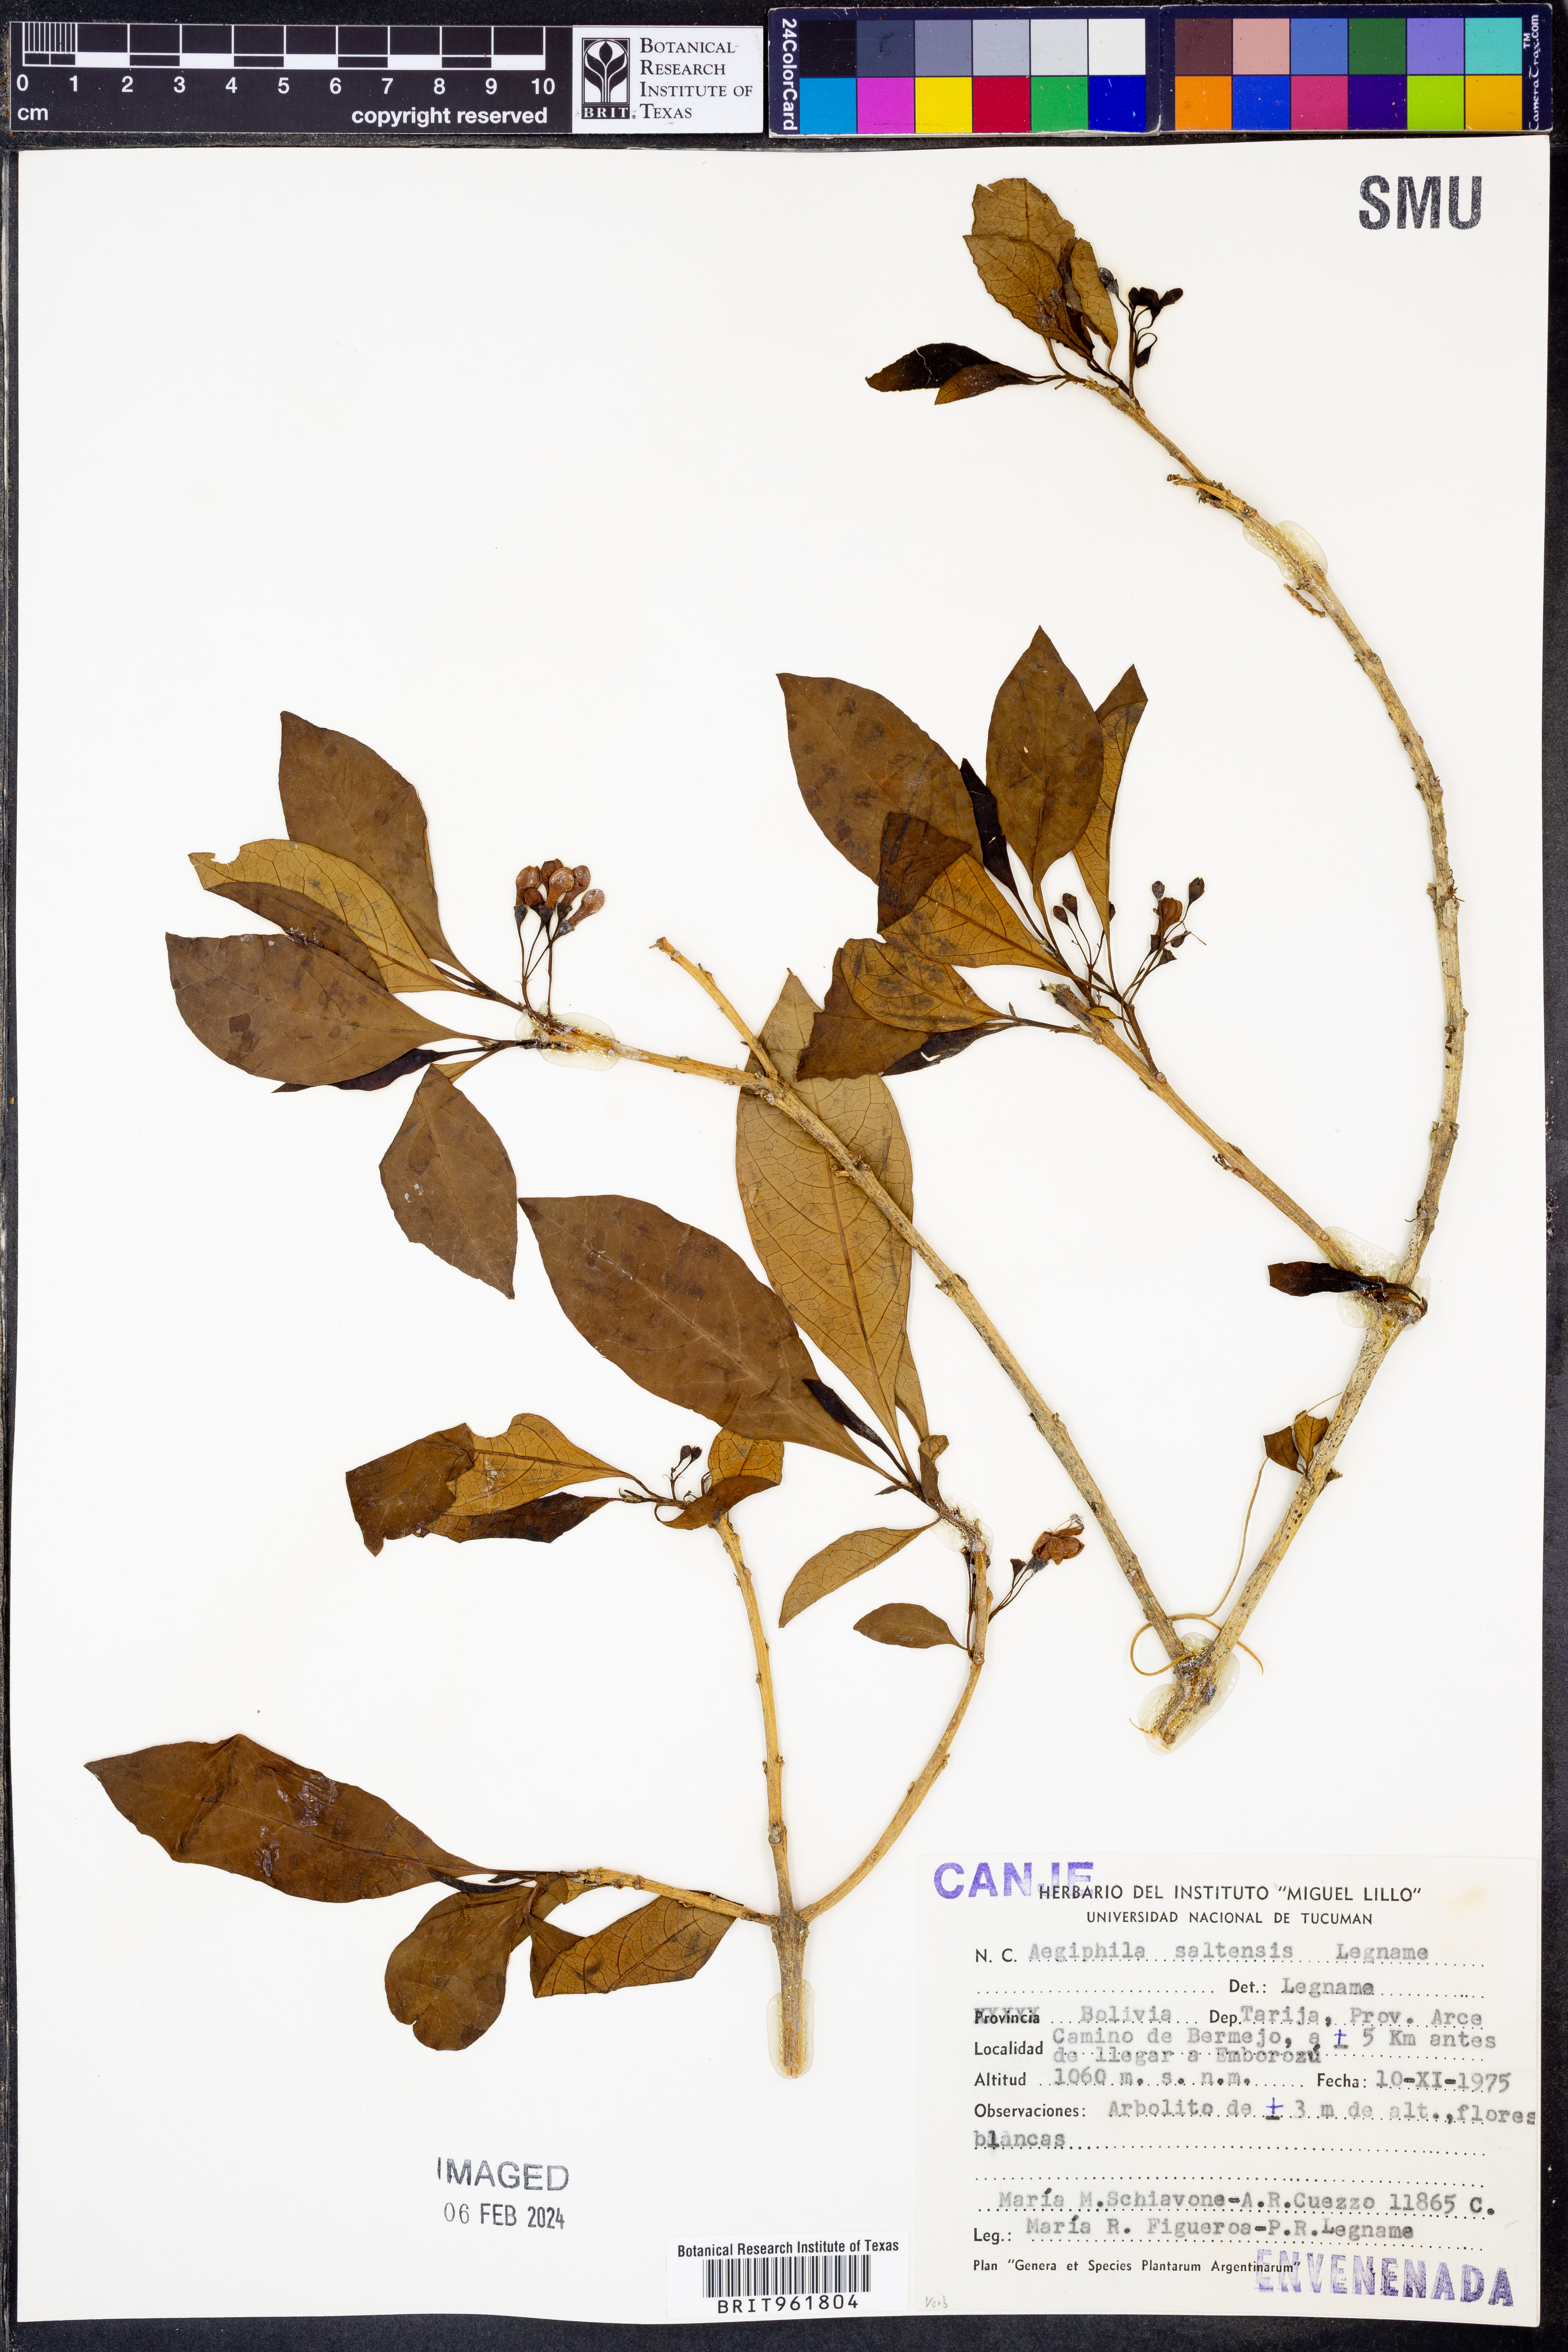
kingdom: Plantae
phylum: Tracheophyta
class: Magnoliopsida
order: Lamiales
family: Lamiaceae
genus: Aegiphila
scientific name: Aegiphila
